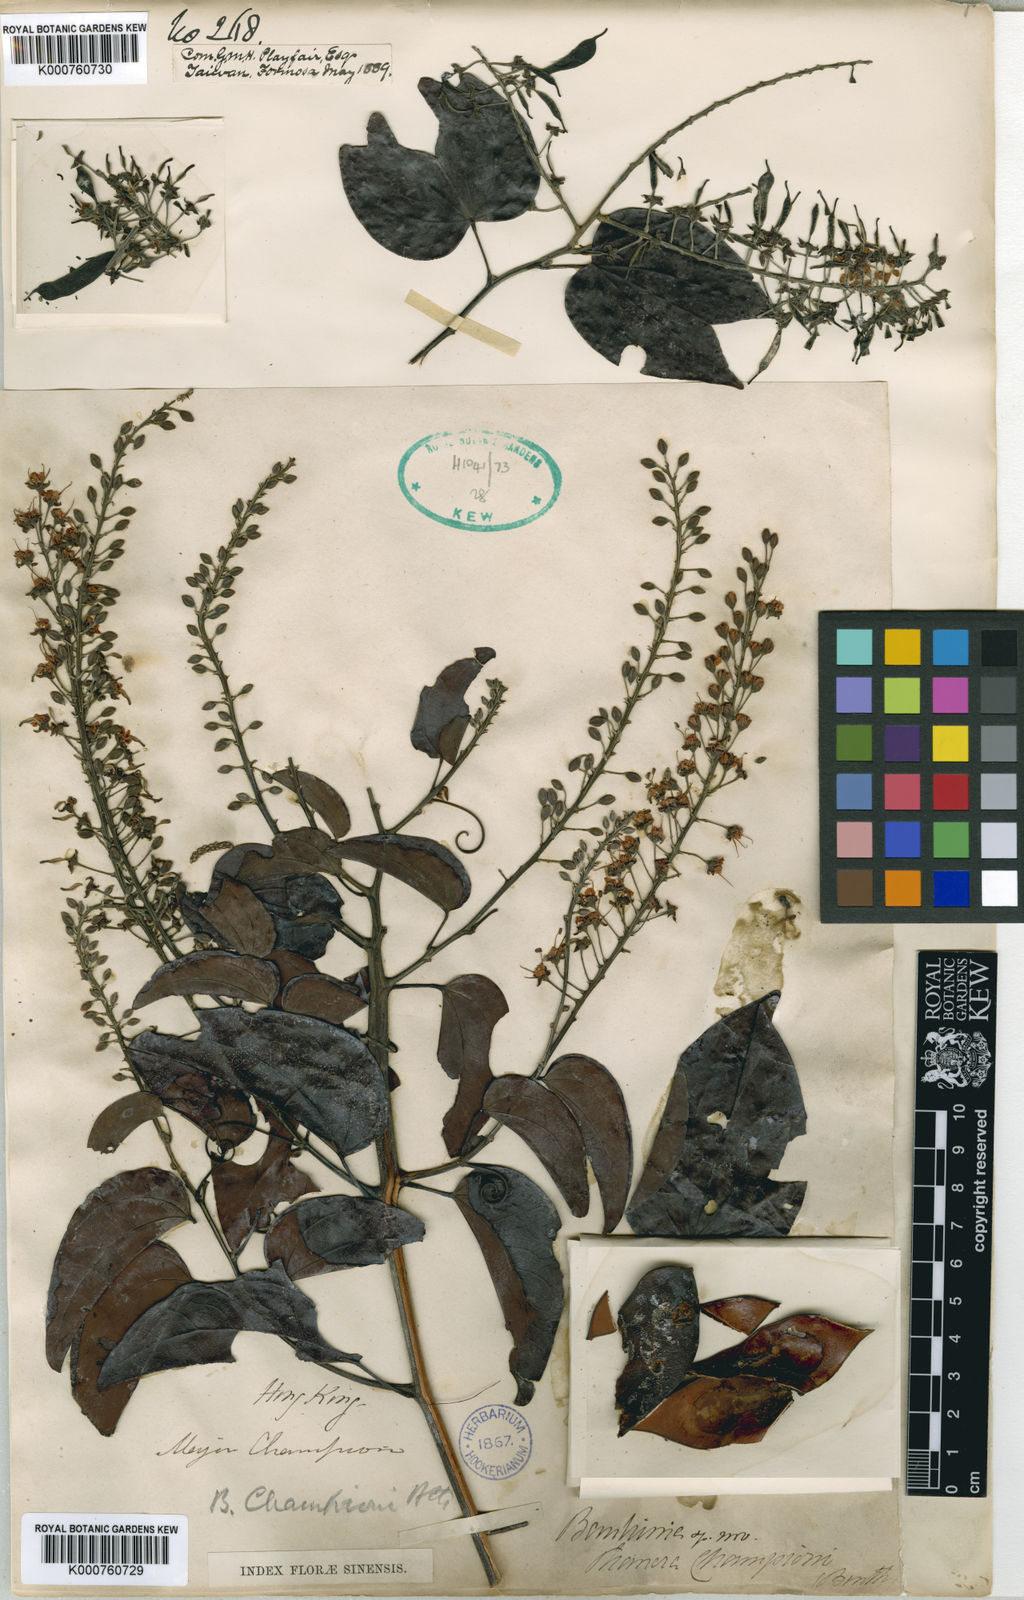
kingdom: Plantae
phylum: Tracheophyta
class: Magnoliopsida
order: Fabales
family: Fabaceae
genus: Phanera
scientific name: Phanera championii
